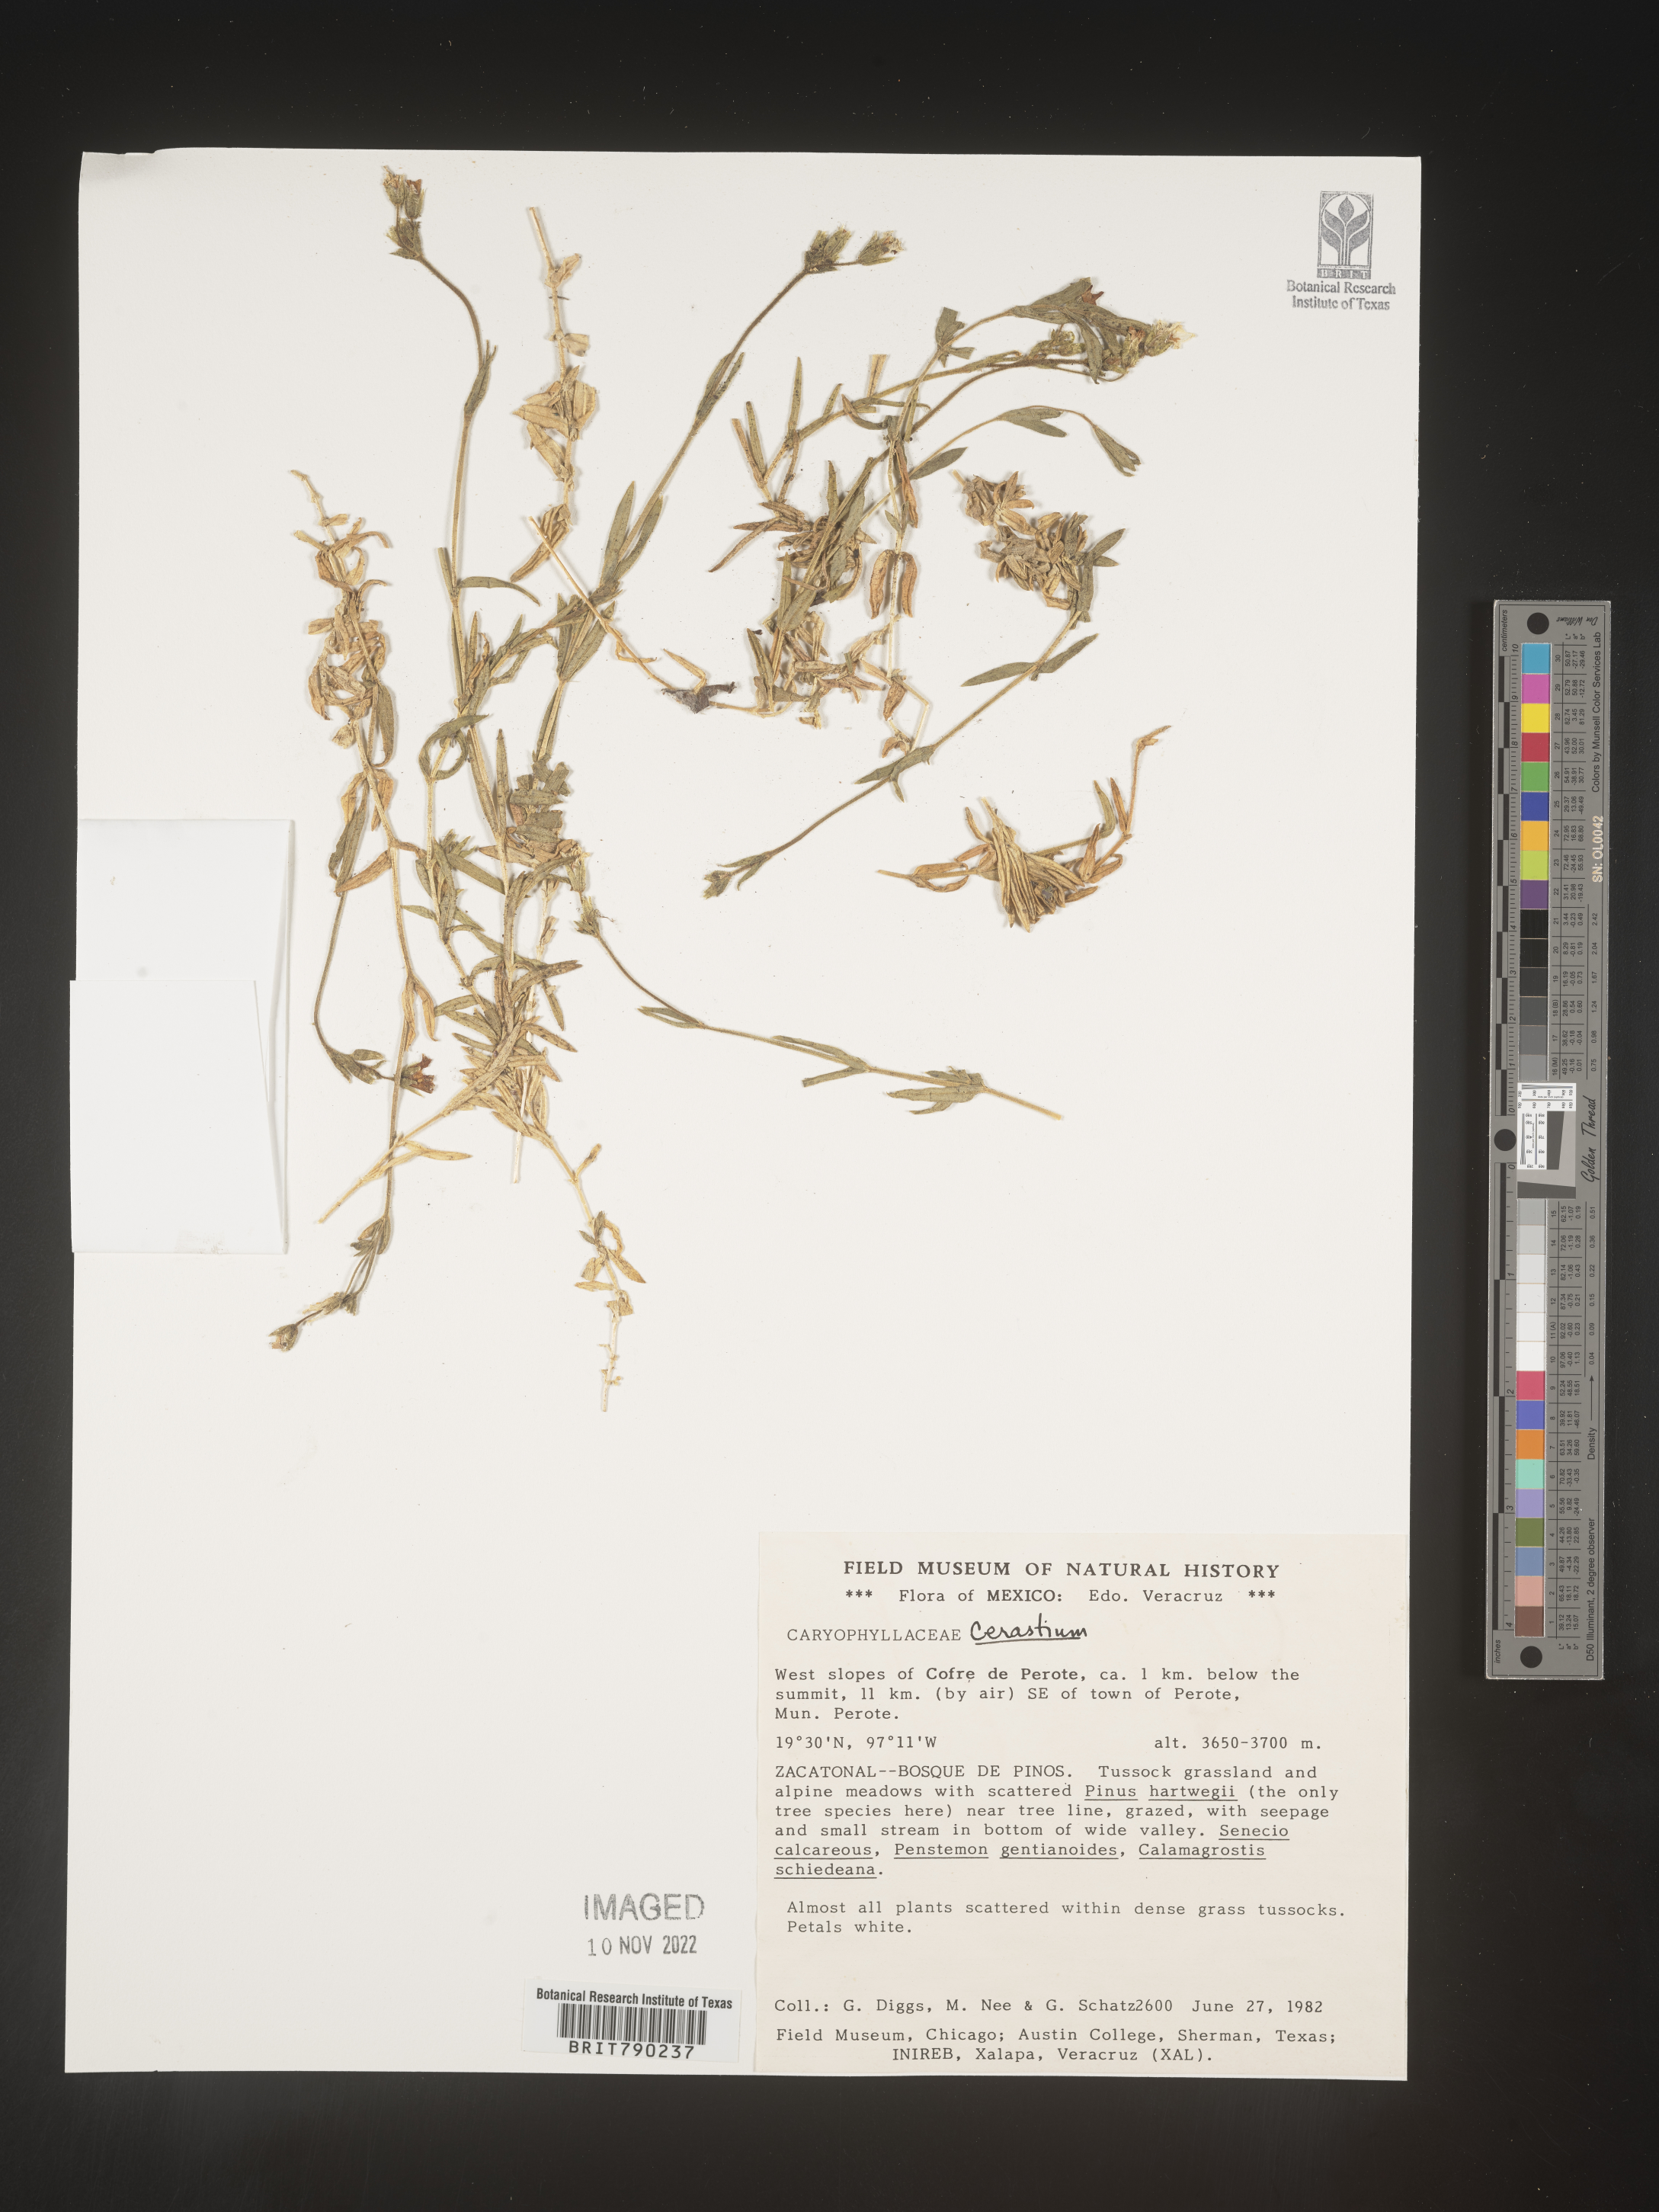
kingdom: Plantae
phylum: Tracheophyta
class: Magnoliopsida
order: Caryophyllales
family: Caryophyllaceae
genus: Cerastium
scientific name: Cerastium
